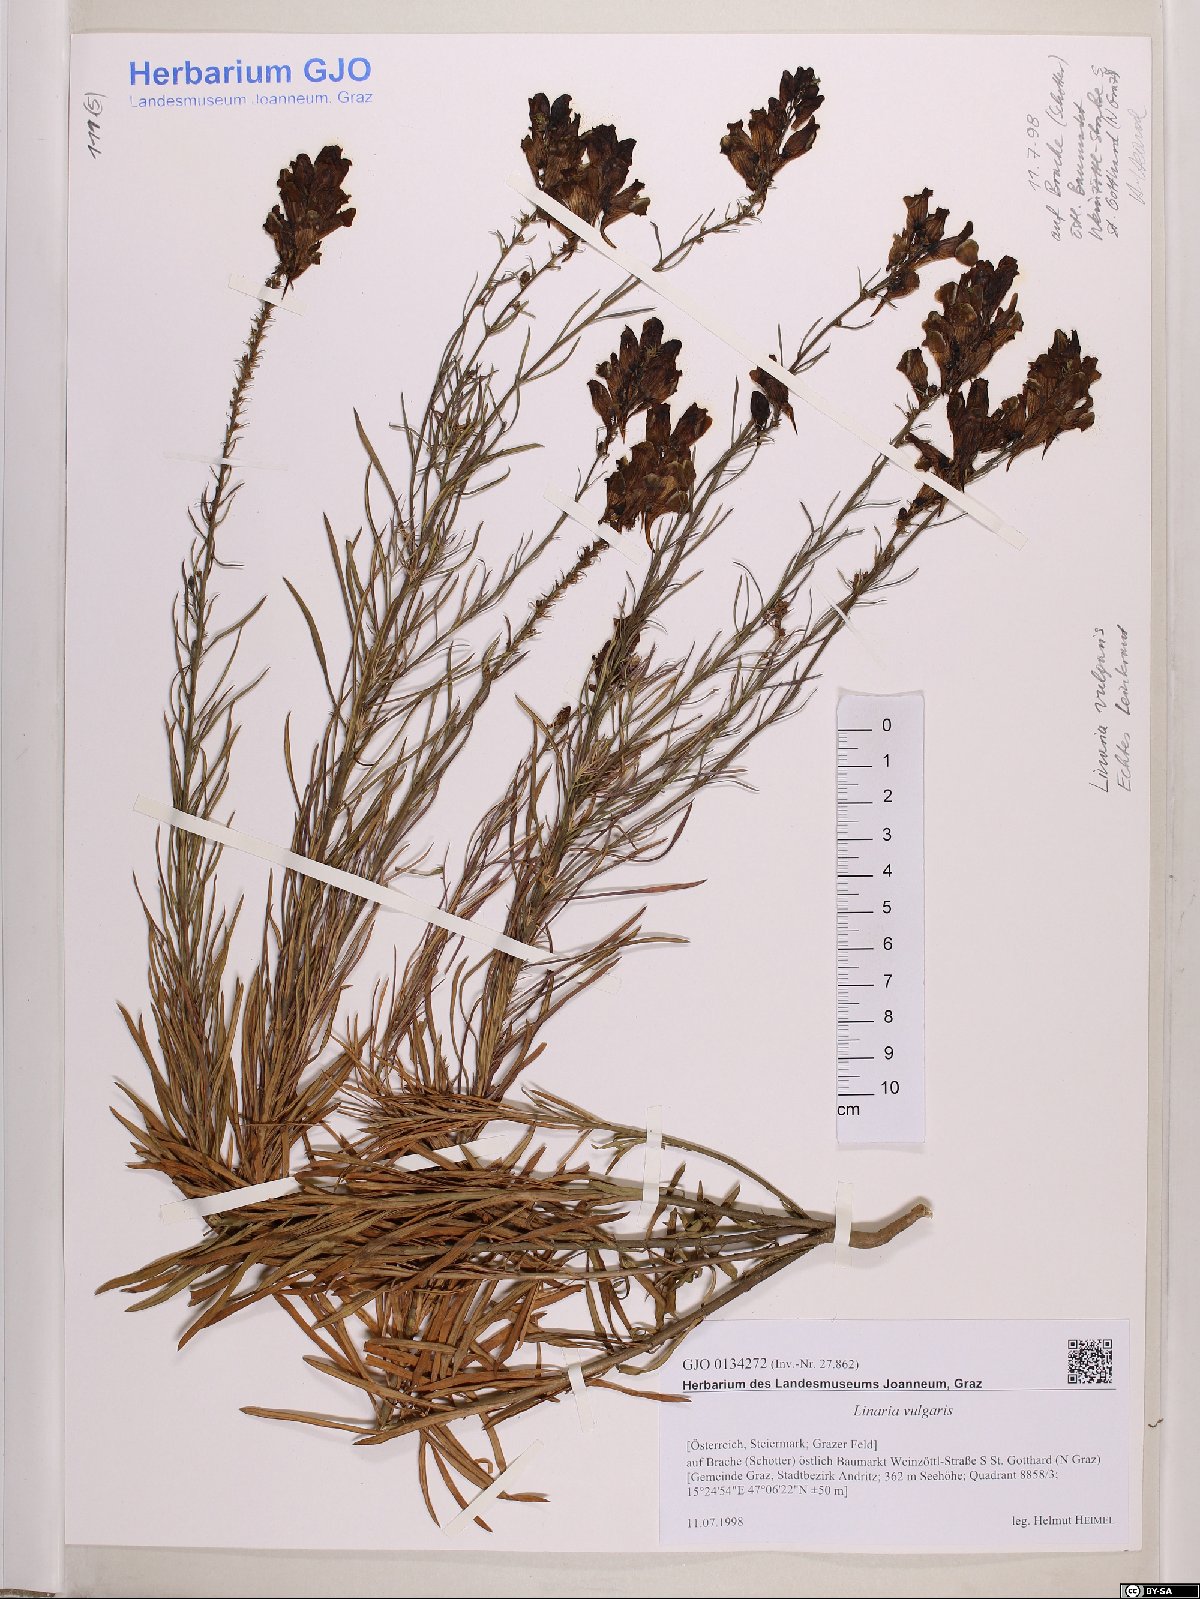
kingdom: Plantae
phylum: Tracheophyta
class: Magnoliopsida
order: Lamiales
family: Plantaginaceae
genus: Linaria
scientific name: Linaria vulgaris
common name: Butter and eggs
